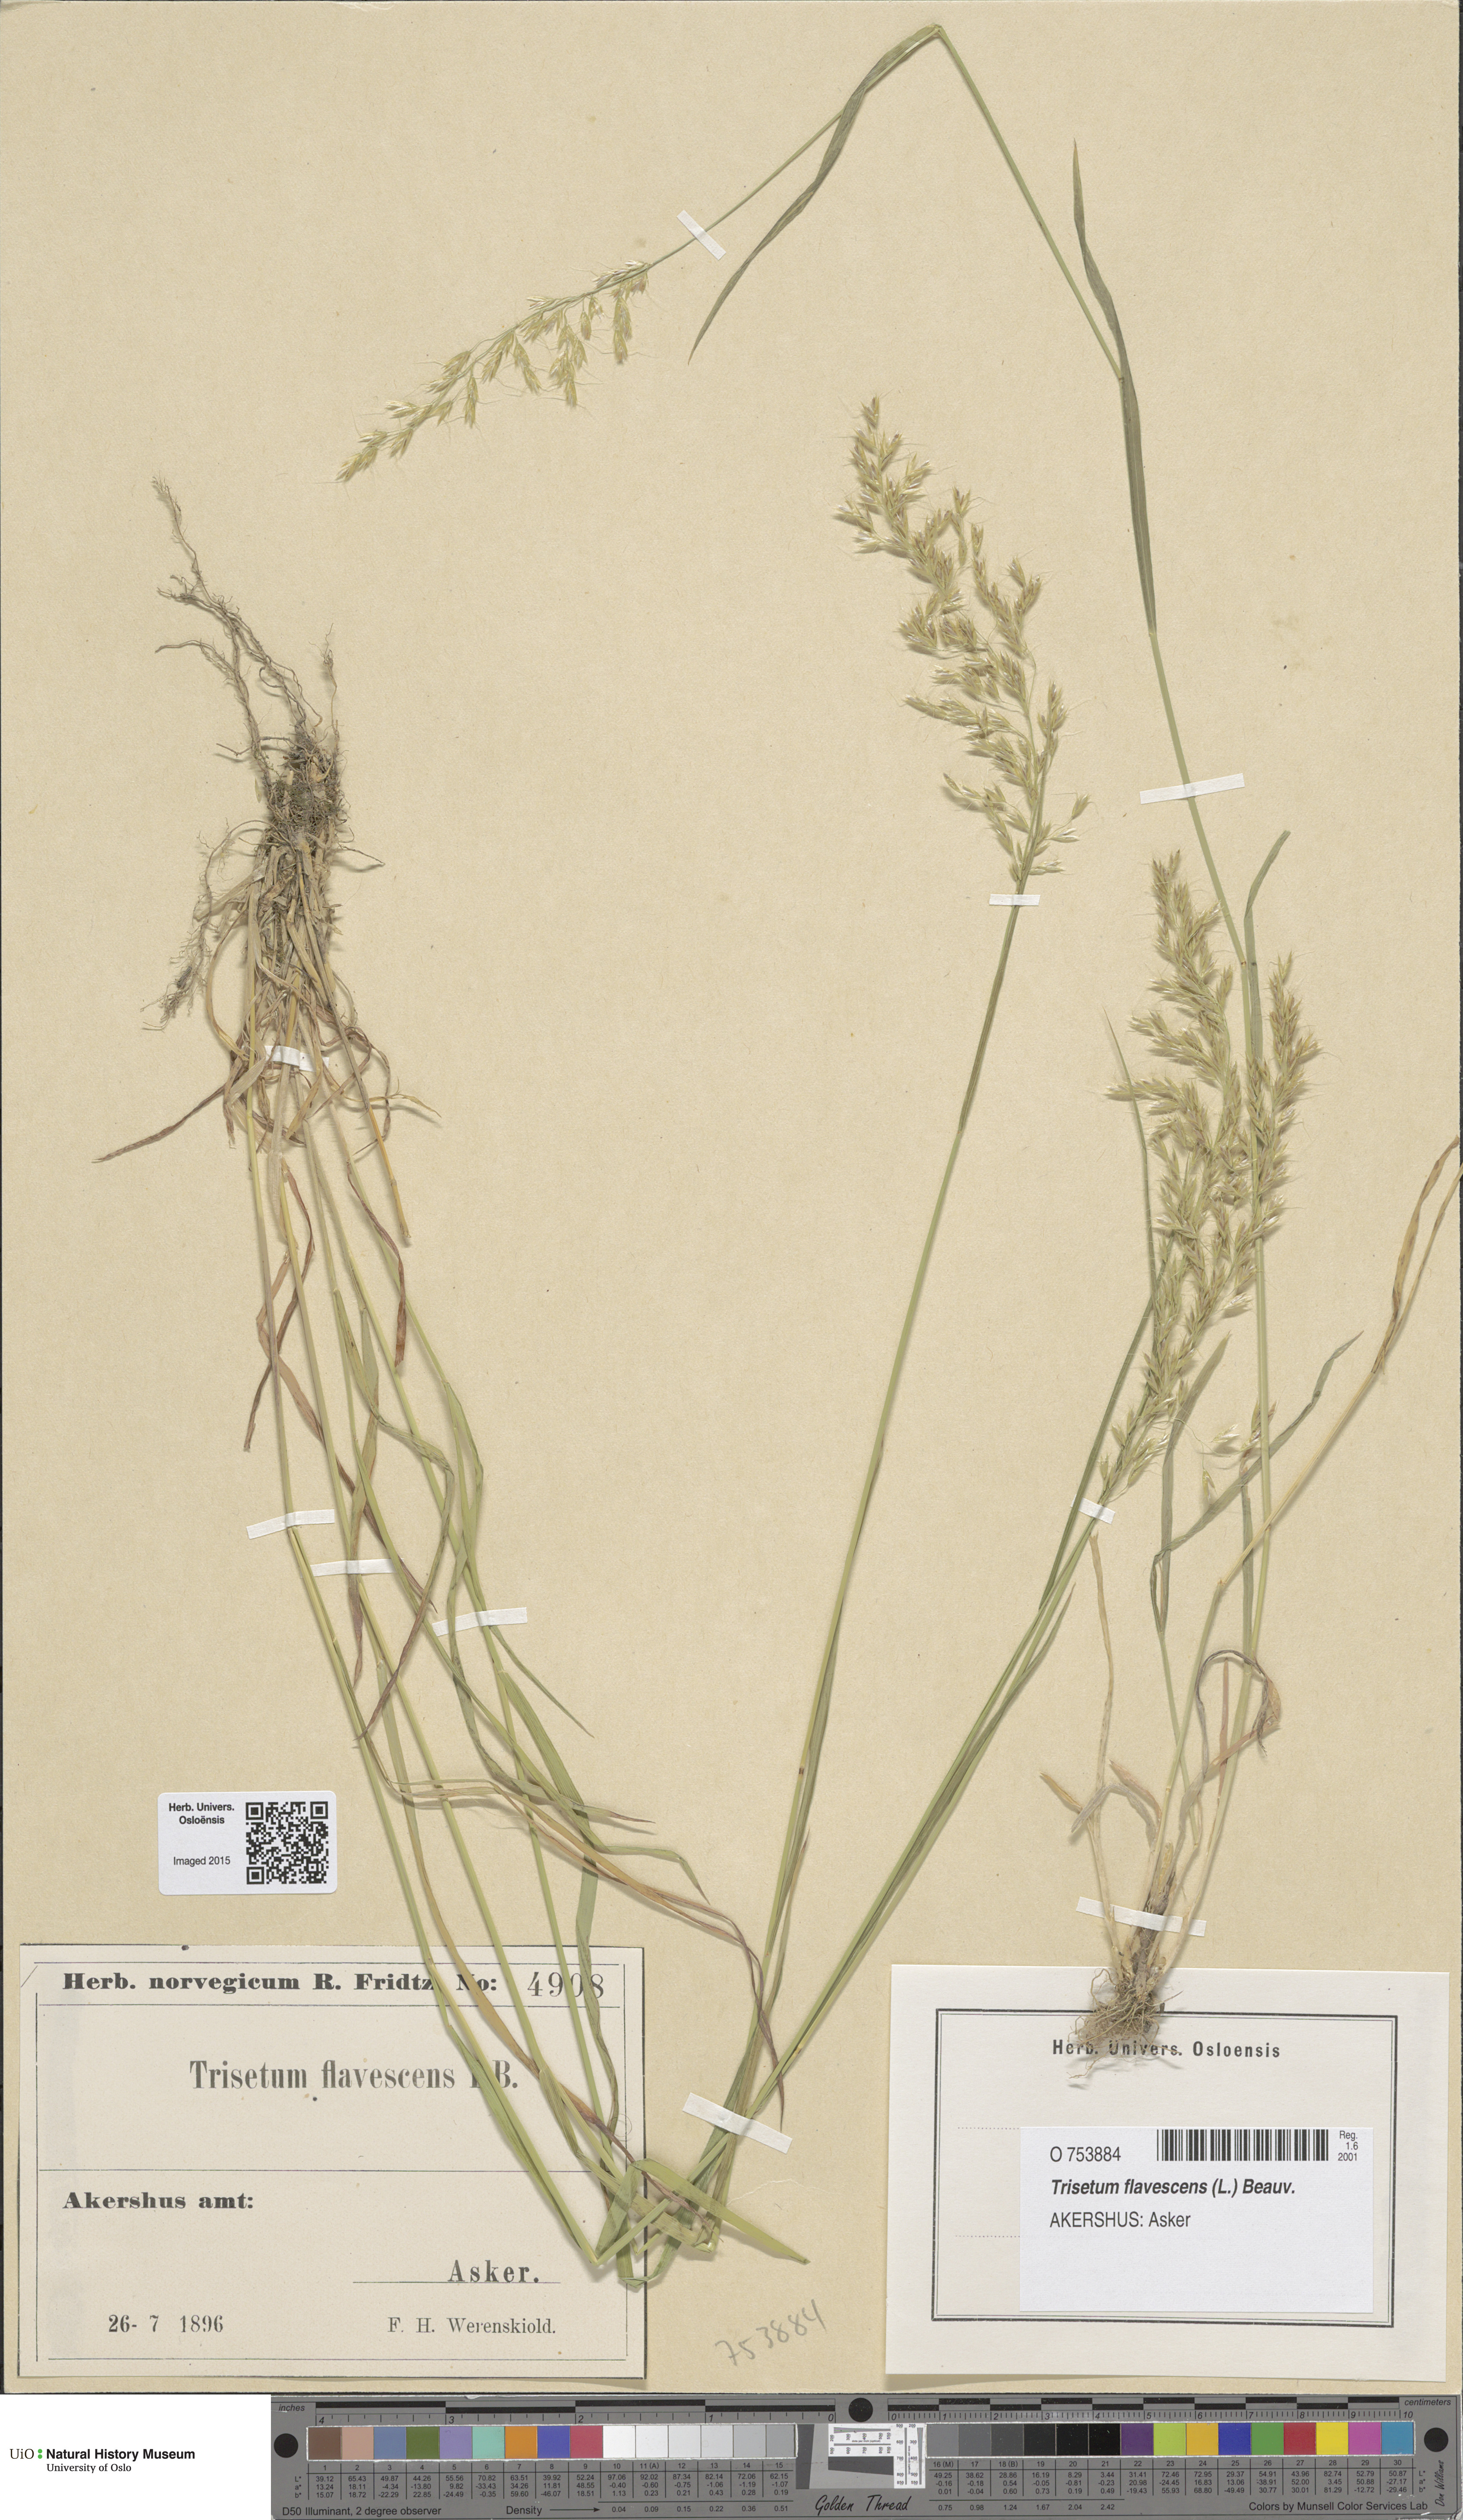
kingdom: Plantae
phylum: Tracheophyta
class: Liliopsida
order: Poales
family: Poaceae
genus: Trisetum
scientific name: Trisetum flavescens
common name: Yellow oat-grass
